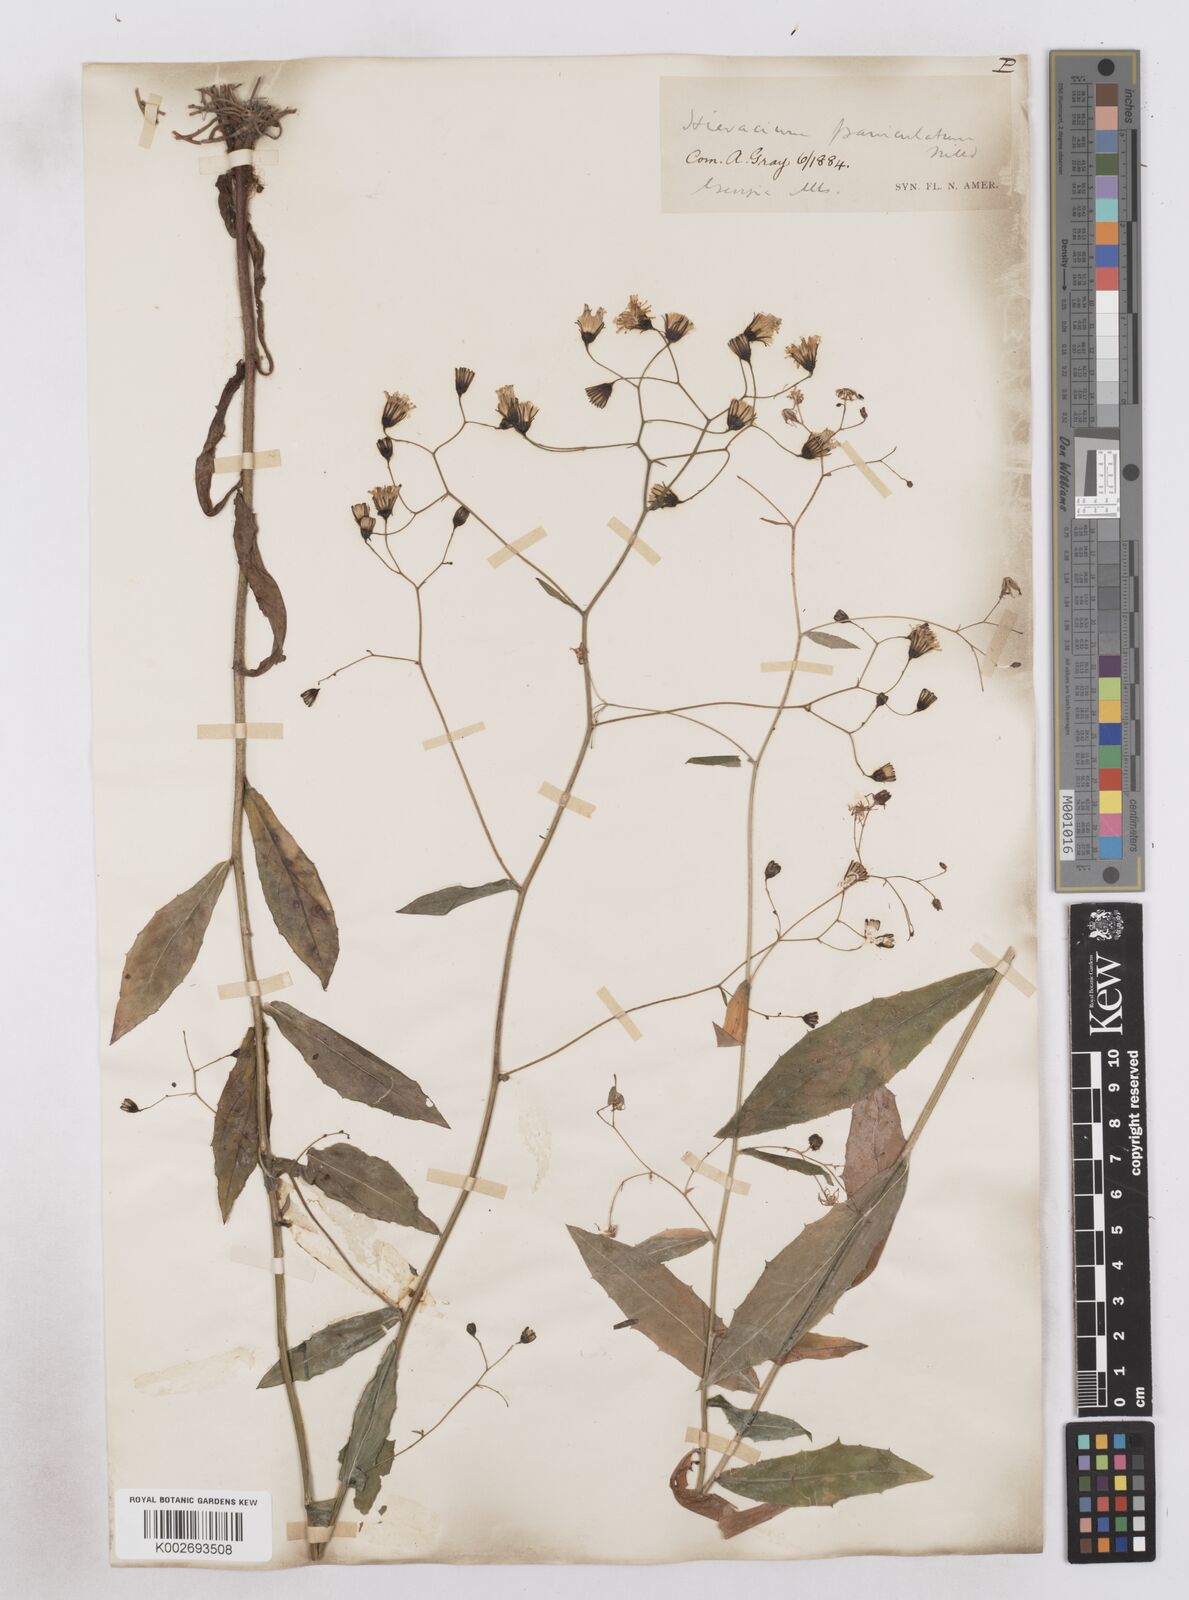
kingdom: Plantae
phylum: Tracheophyta
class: Magnoliopsida
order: Asterales
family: Asteraceae
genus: Hieracium
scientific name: Hieracium paniculatum
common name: Allegheny hawkweed
